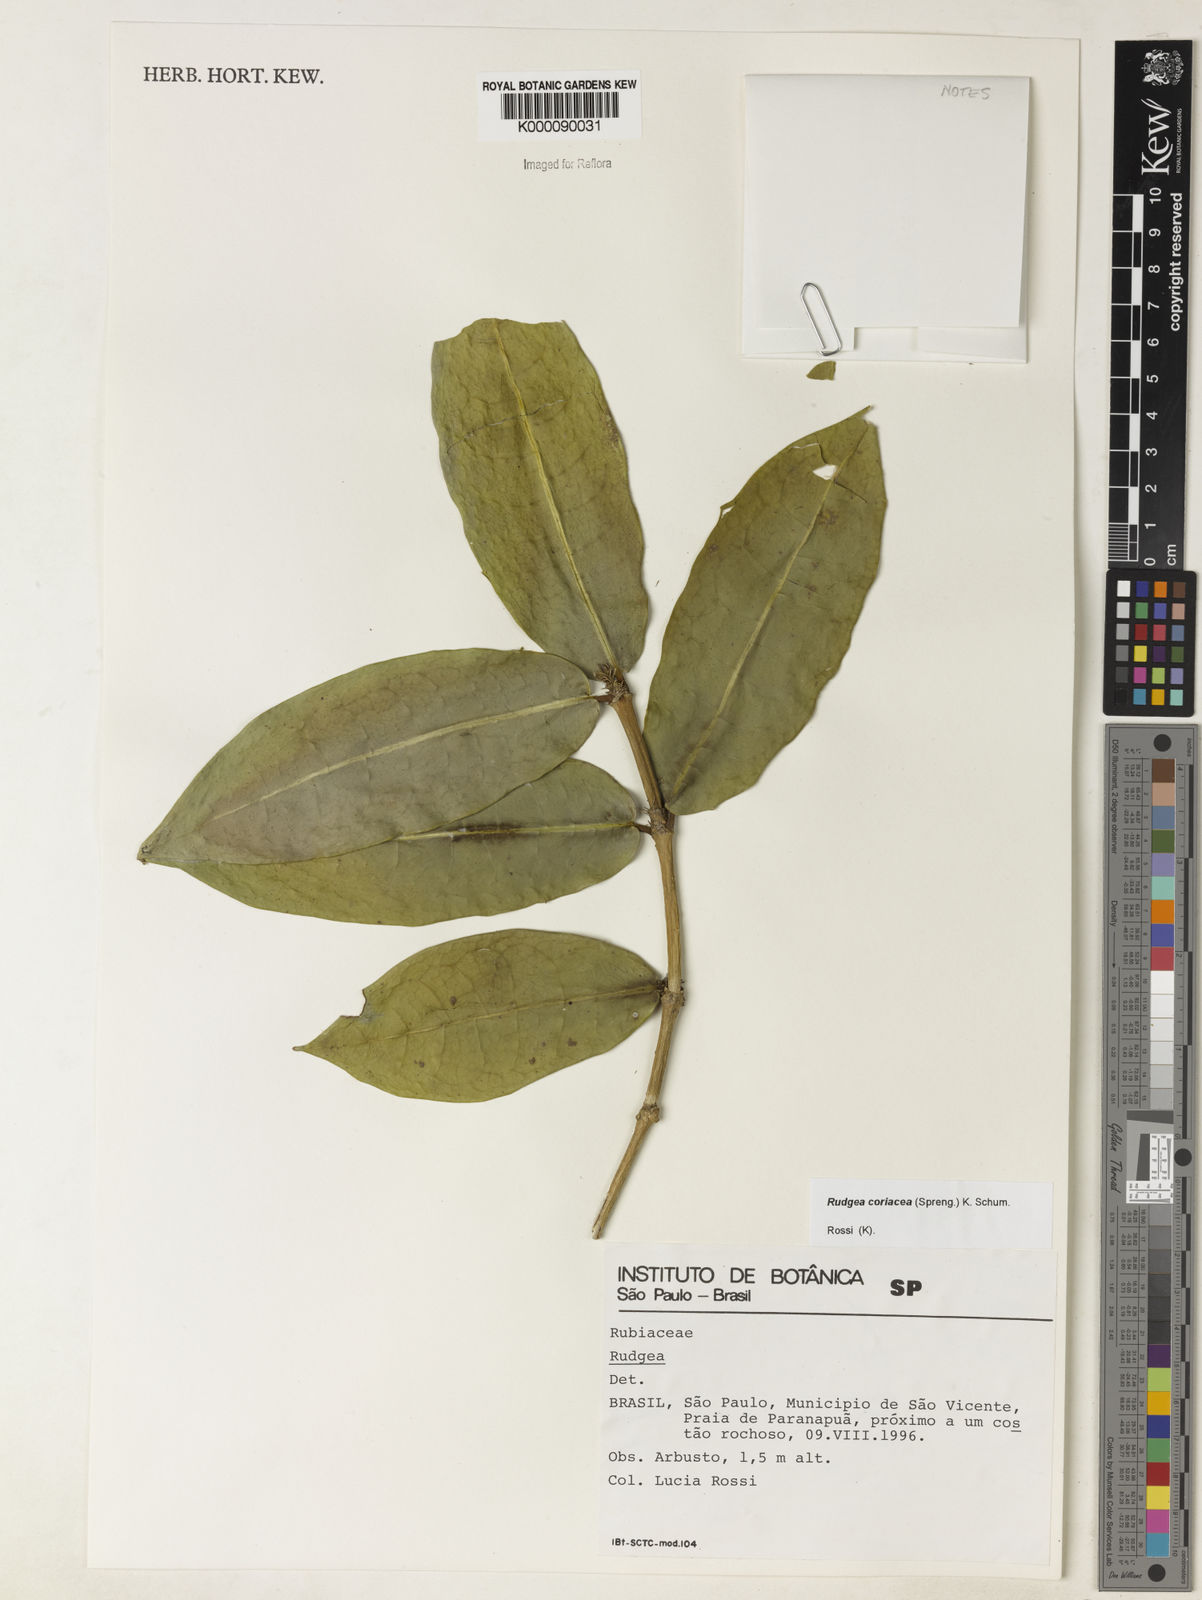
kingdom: Plantae
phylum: Tracheophyta
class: Magnoliopsida
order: Gentianales
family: Rubiaceae
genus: Rudgea
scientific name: Rudgea coriacea
